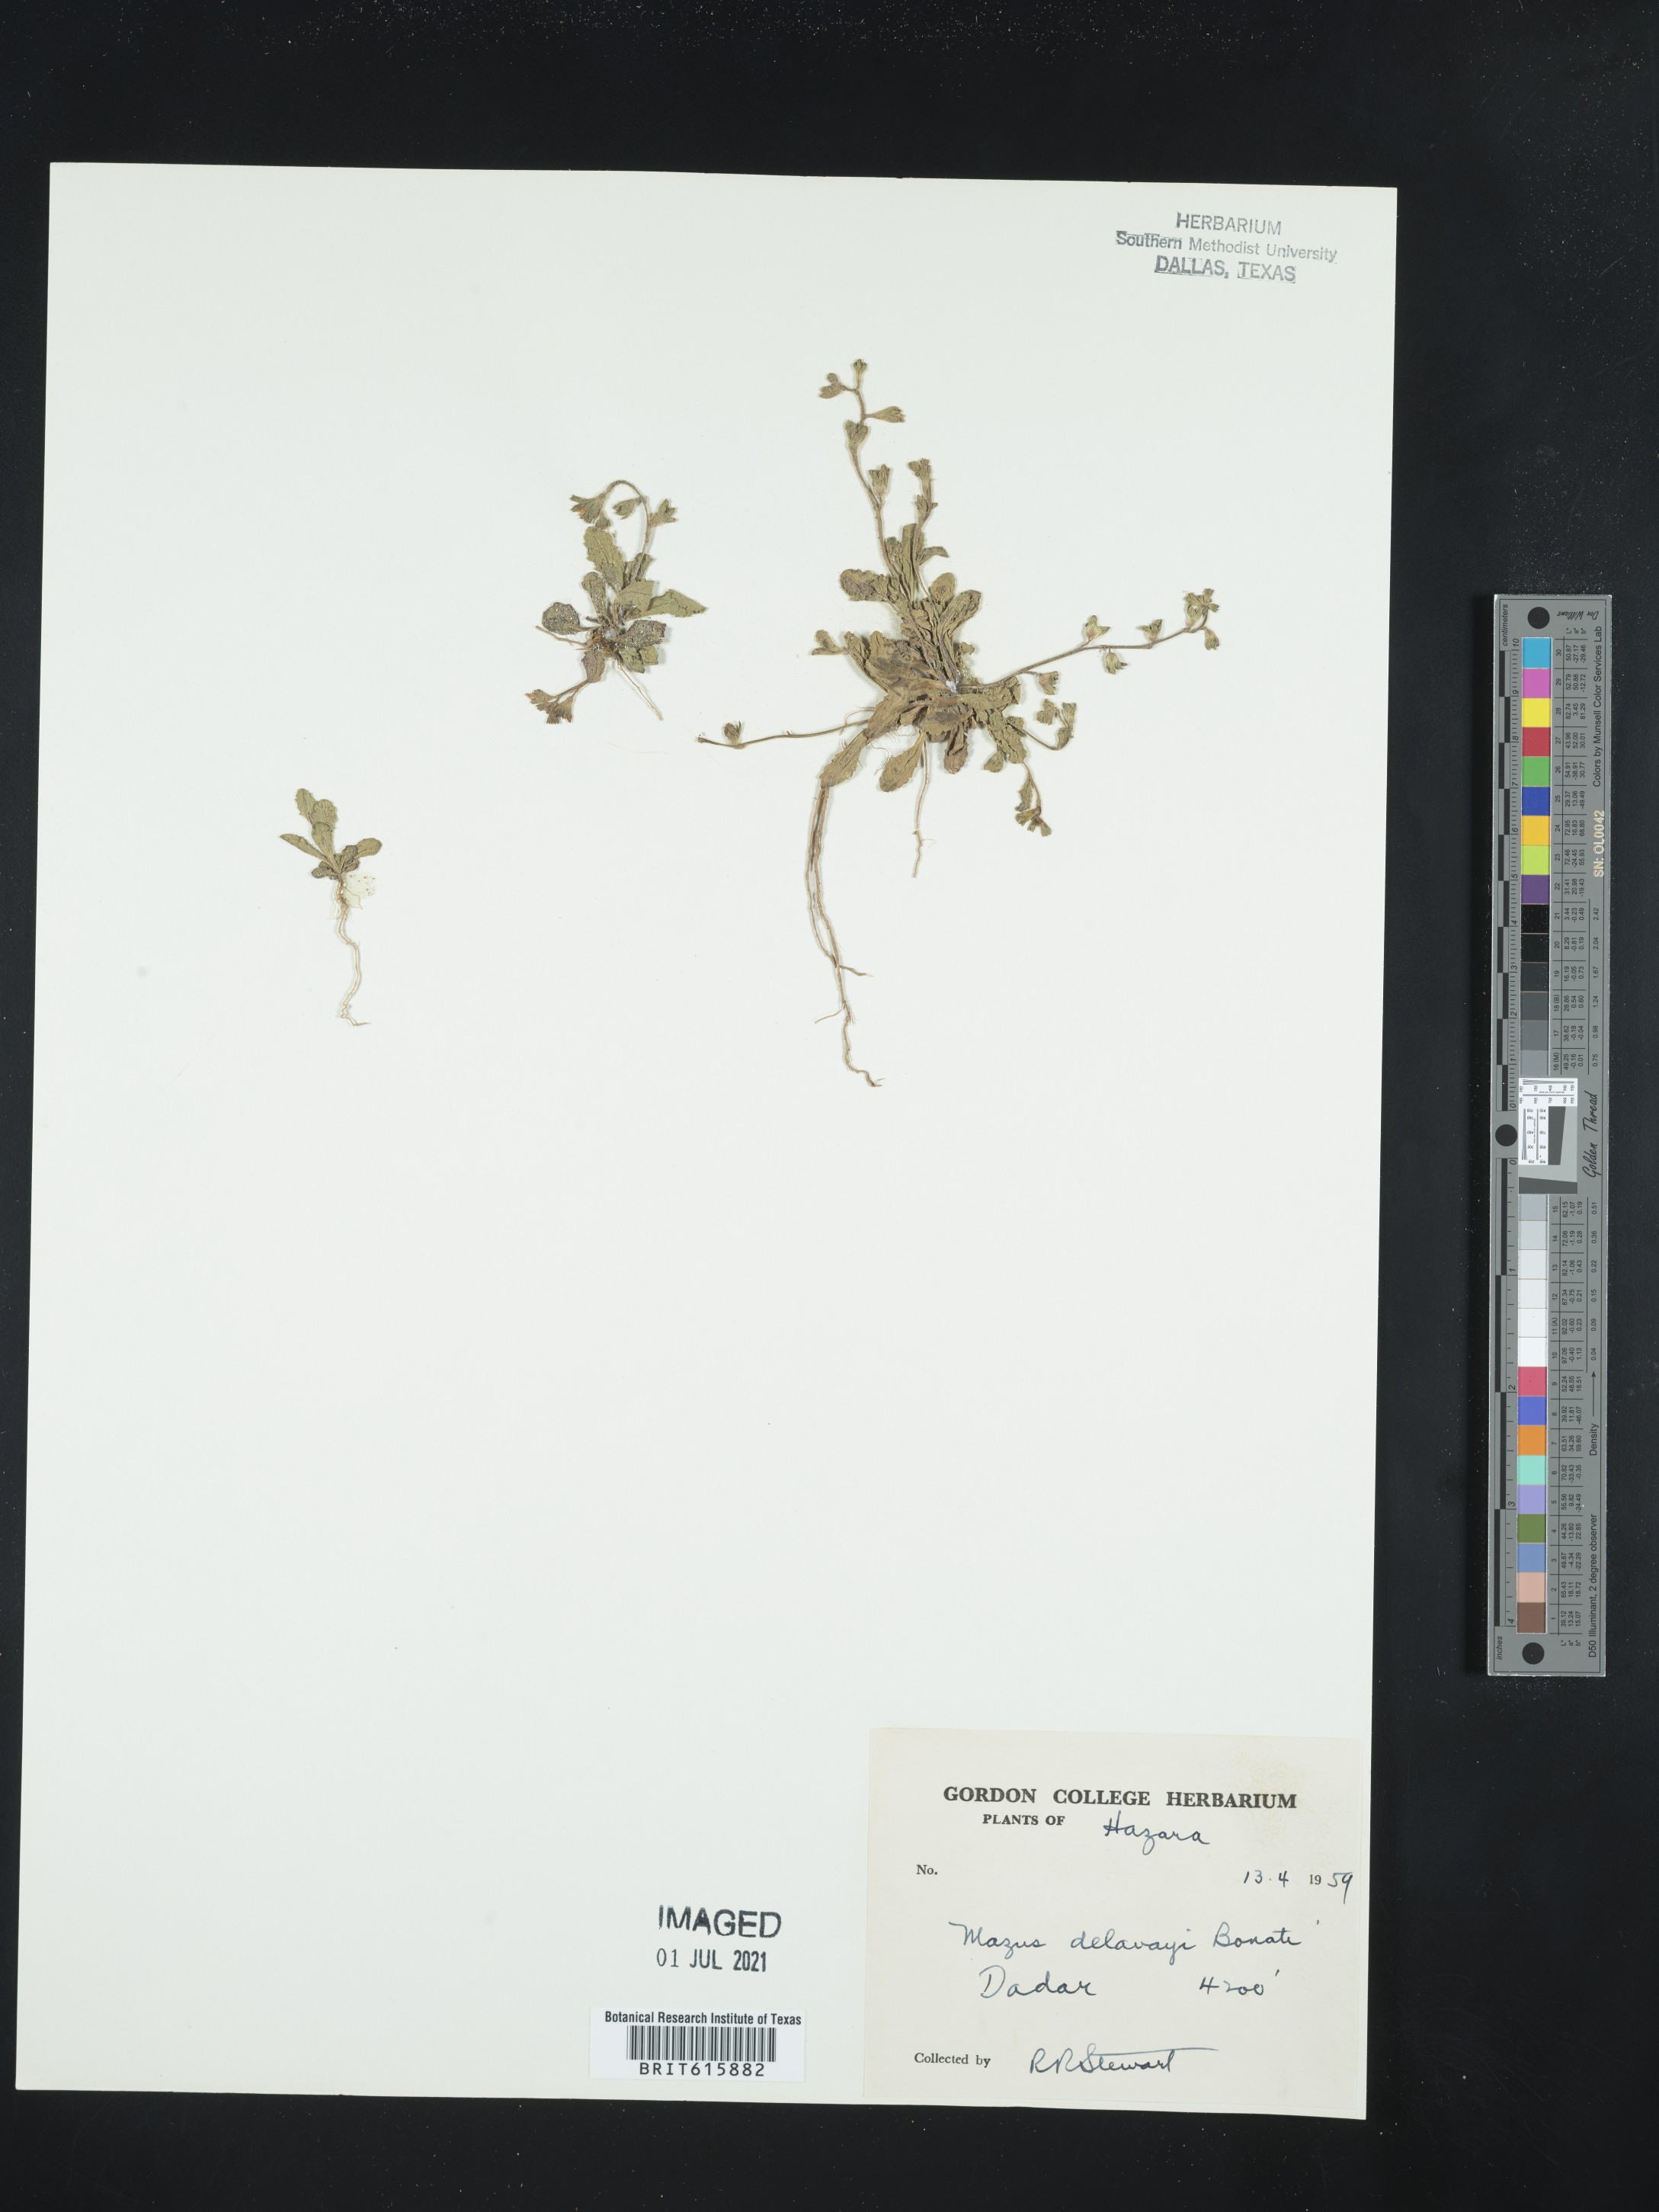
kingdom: Plantae
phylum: Tracheophyta
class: Magnoliopsida
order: Lamiales
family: Mazaceae
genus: Mazus
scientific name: Mazus delavayi
